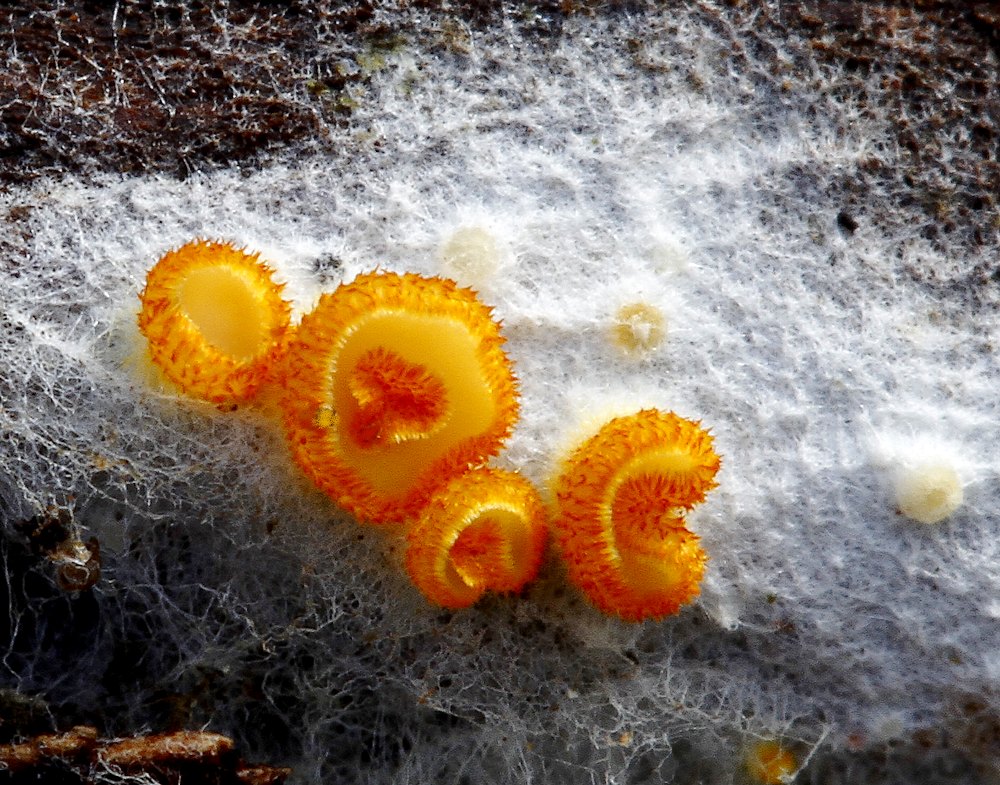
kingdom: Fungi
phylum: Ascomycota
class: Leotiomycetes
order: Helotiales
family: Arachnopezizaceae
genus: Arachnopeziza
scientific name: Arachnopeziza aurelia
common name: flamme-spindskive
